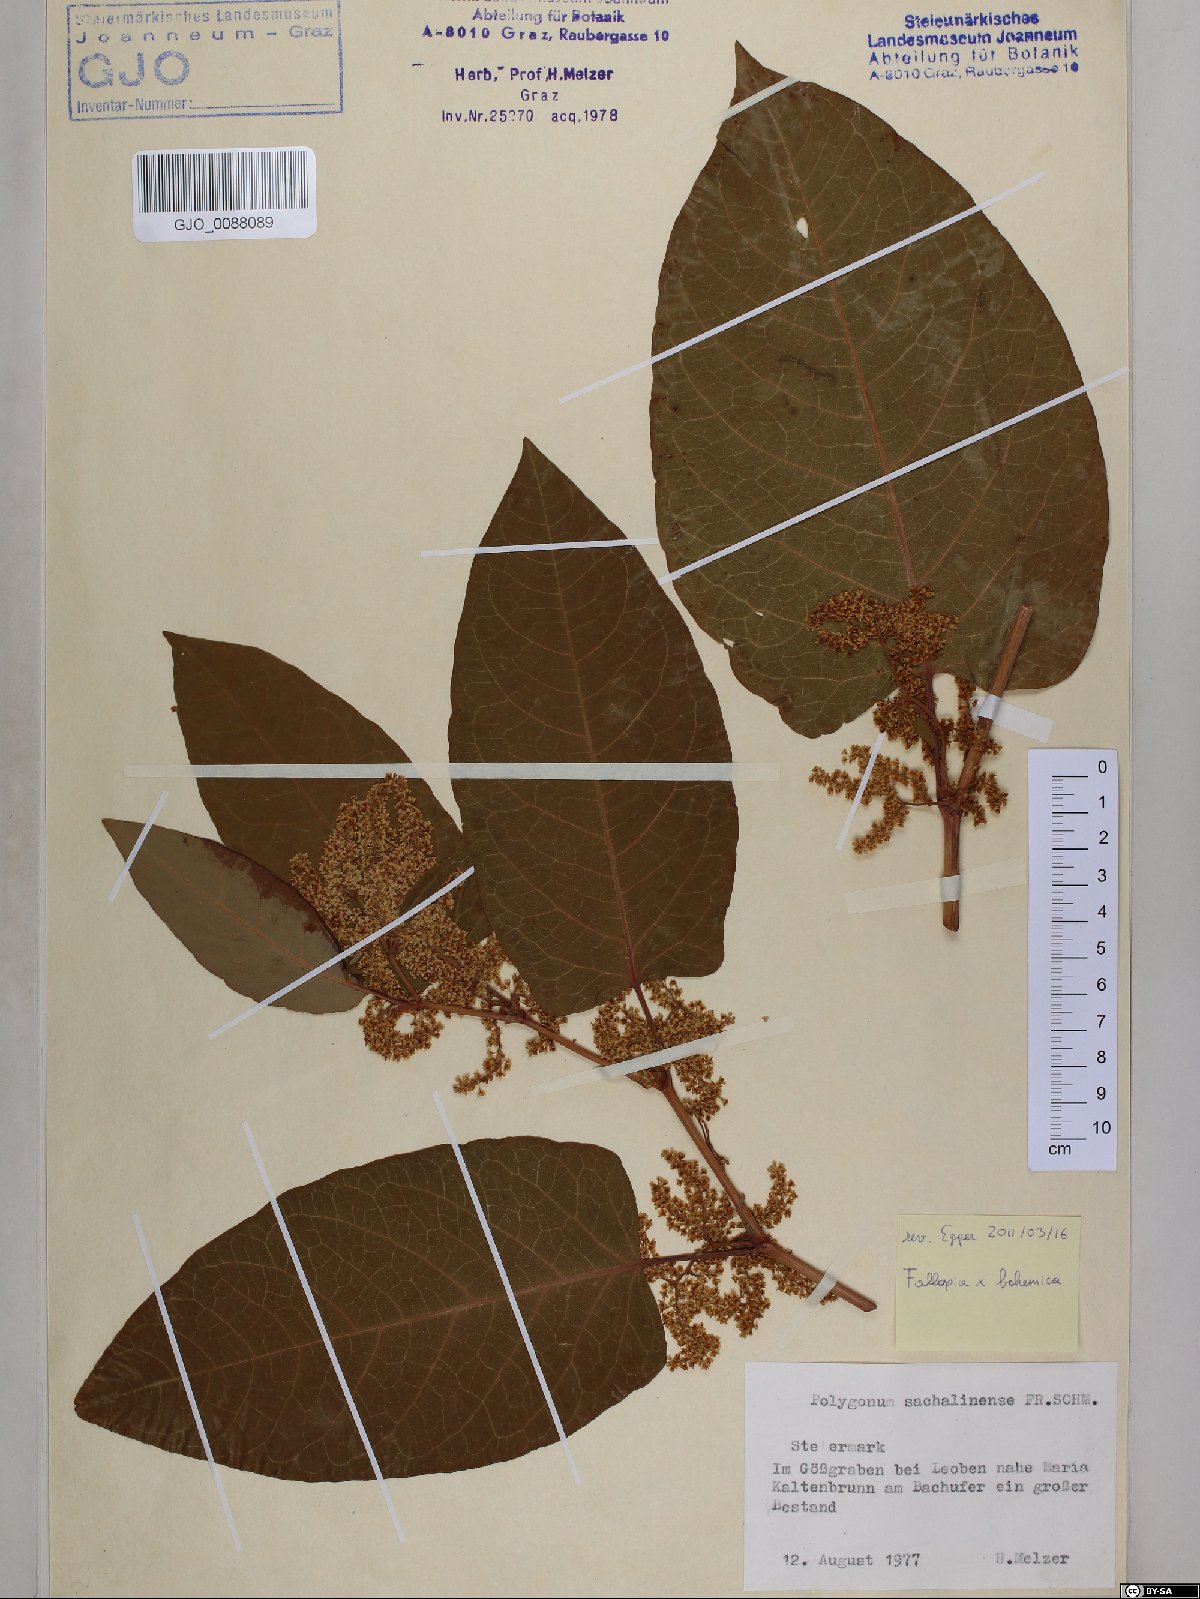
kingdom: Plantae
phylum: Tracheophyta
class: Magnoliopsida
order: Caryophyllales
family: Polygonaceae
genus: Reynoutria
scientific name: Reynoutria sachalinensis
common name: Giant knotweed
